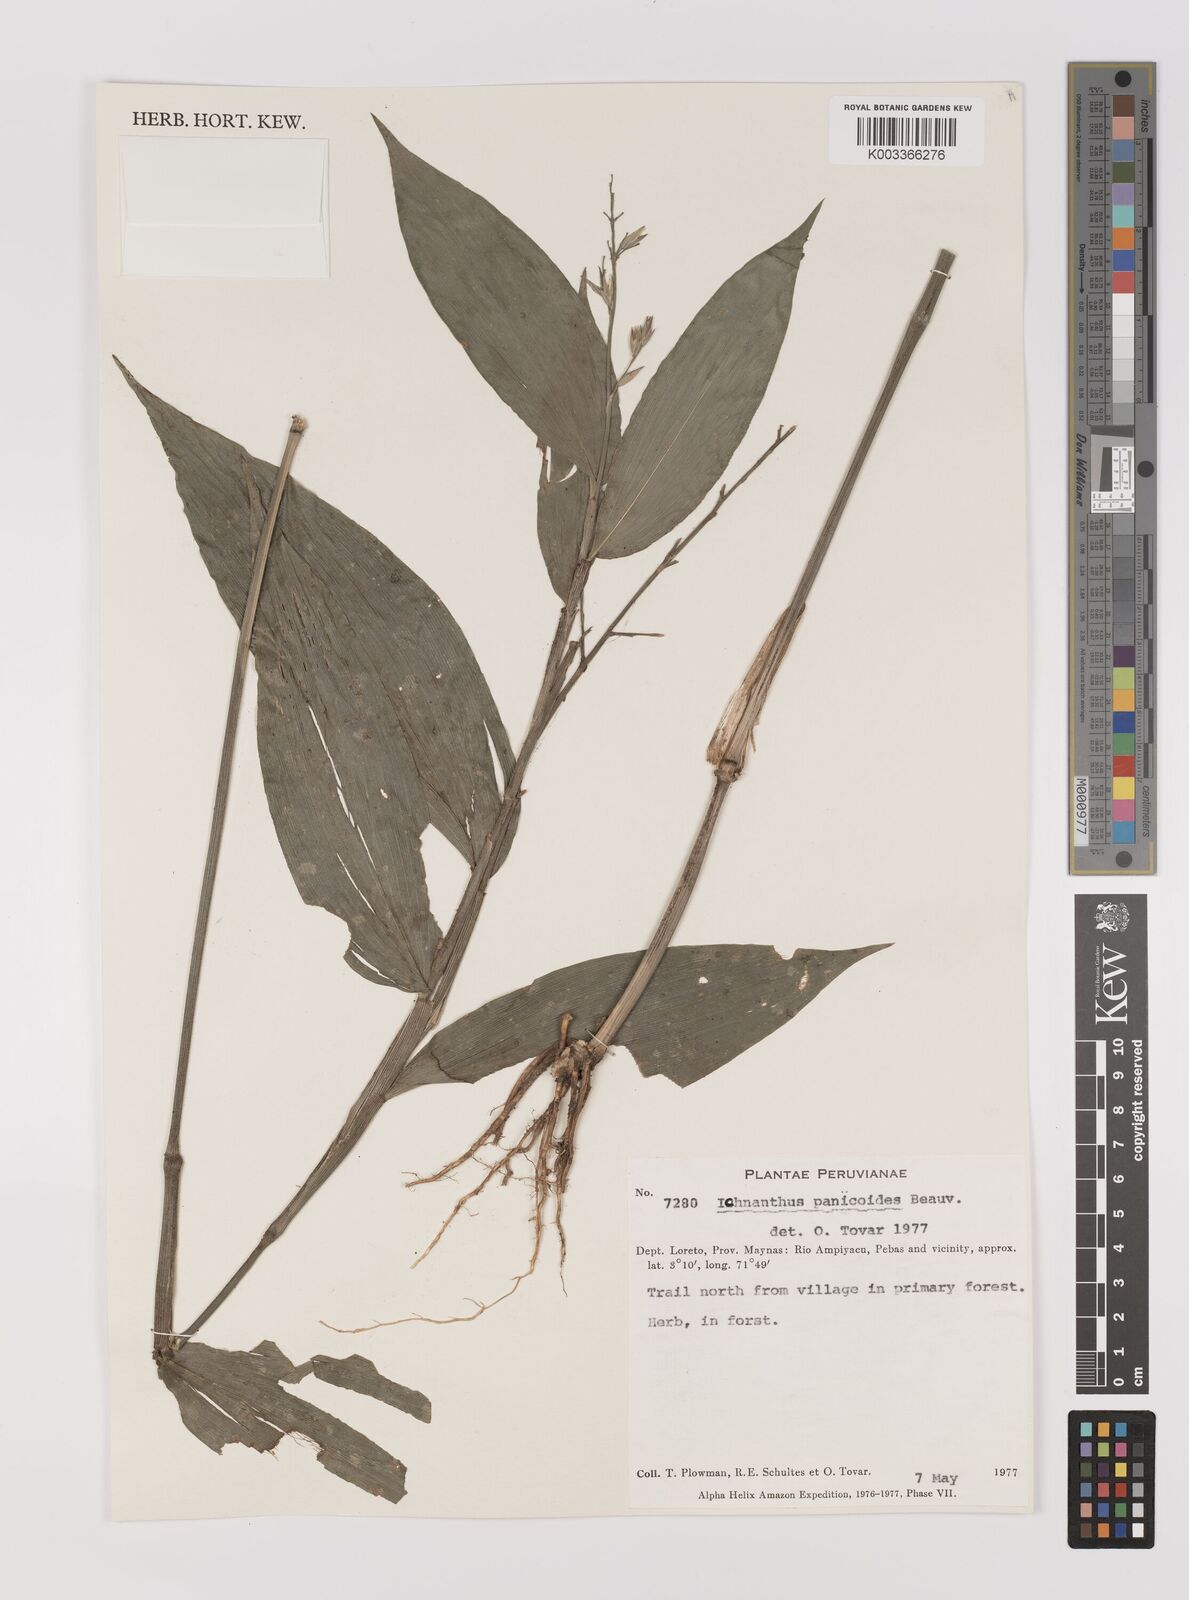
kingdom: Plantae
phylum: Tracheophyta
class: Liliopsida
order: Poales
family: Poaceae
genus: Ichnanthus
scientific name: Ichnanthus panicoides
